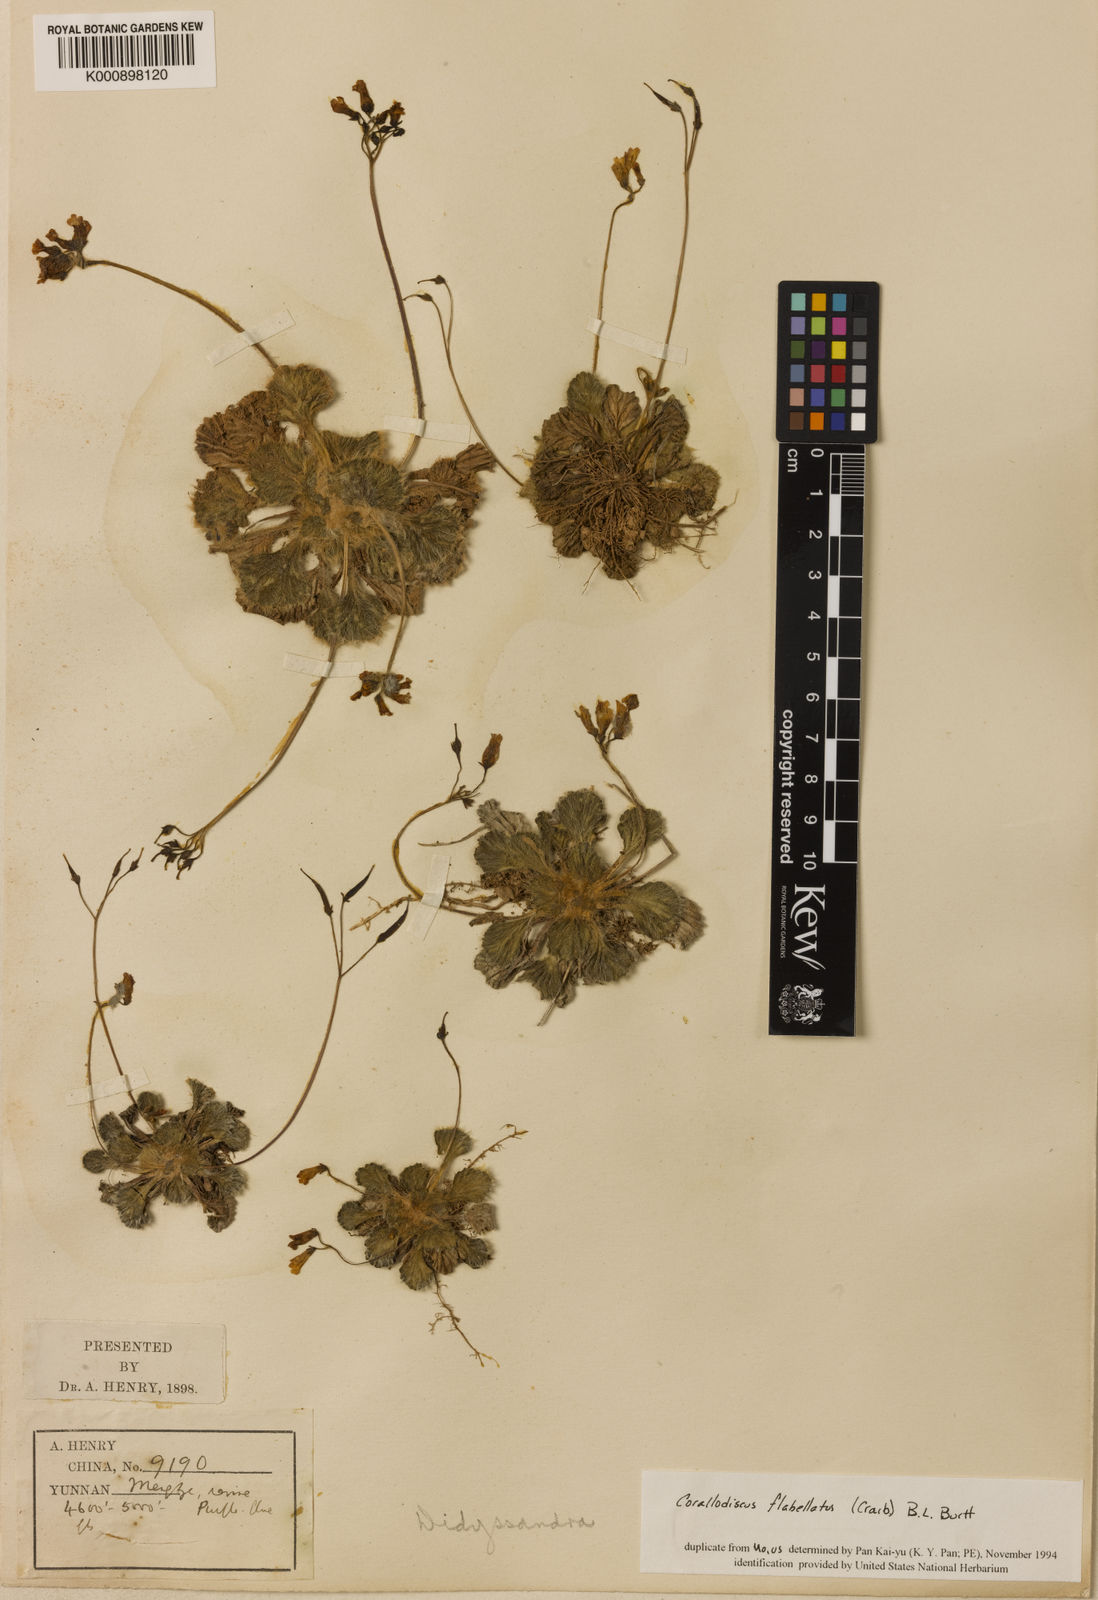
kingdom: Plantae
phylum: Tracheophyta
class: Magnoliopsida
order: Lamiales
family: Gesneriaceae
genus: Corallodiscus
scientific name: Corallodiscus lanuginosus
